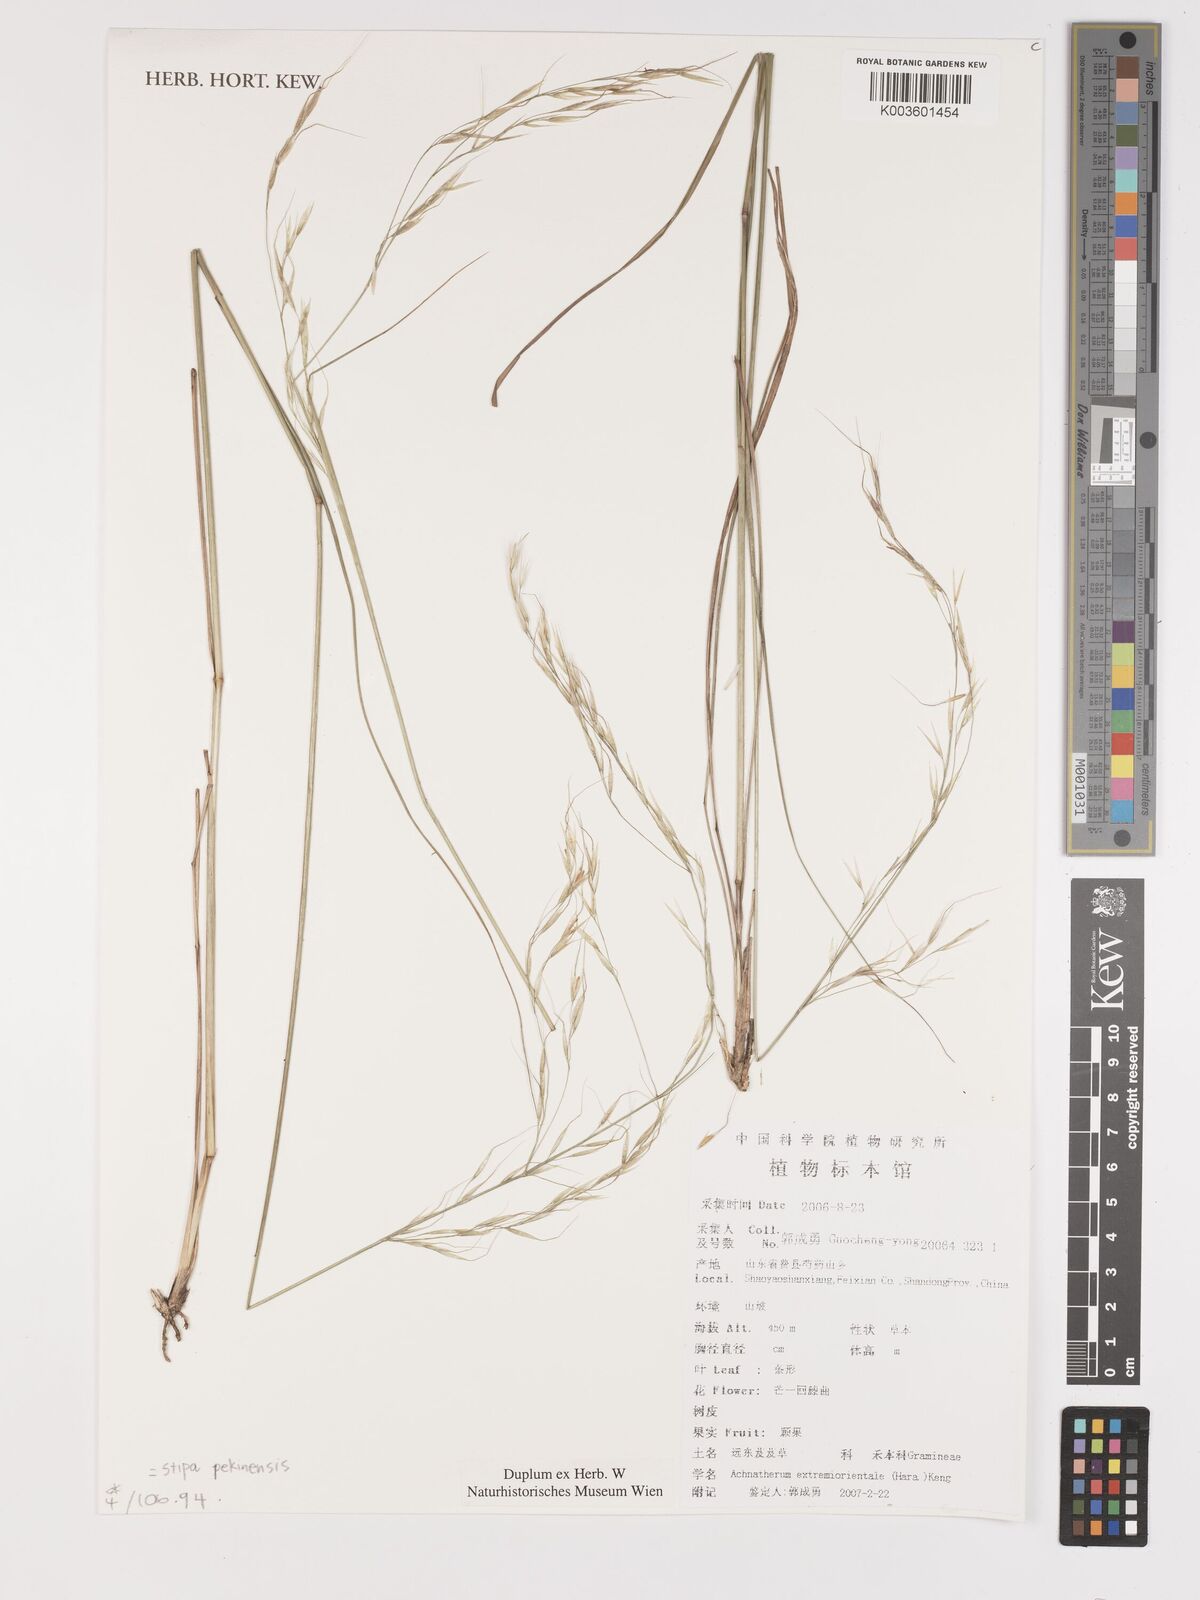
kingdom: Plantae
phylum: Tracheophyta
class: Liliopsida
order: Poales
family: Poaceae
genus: Achnatherum
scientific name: Achnatherum pekinense
